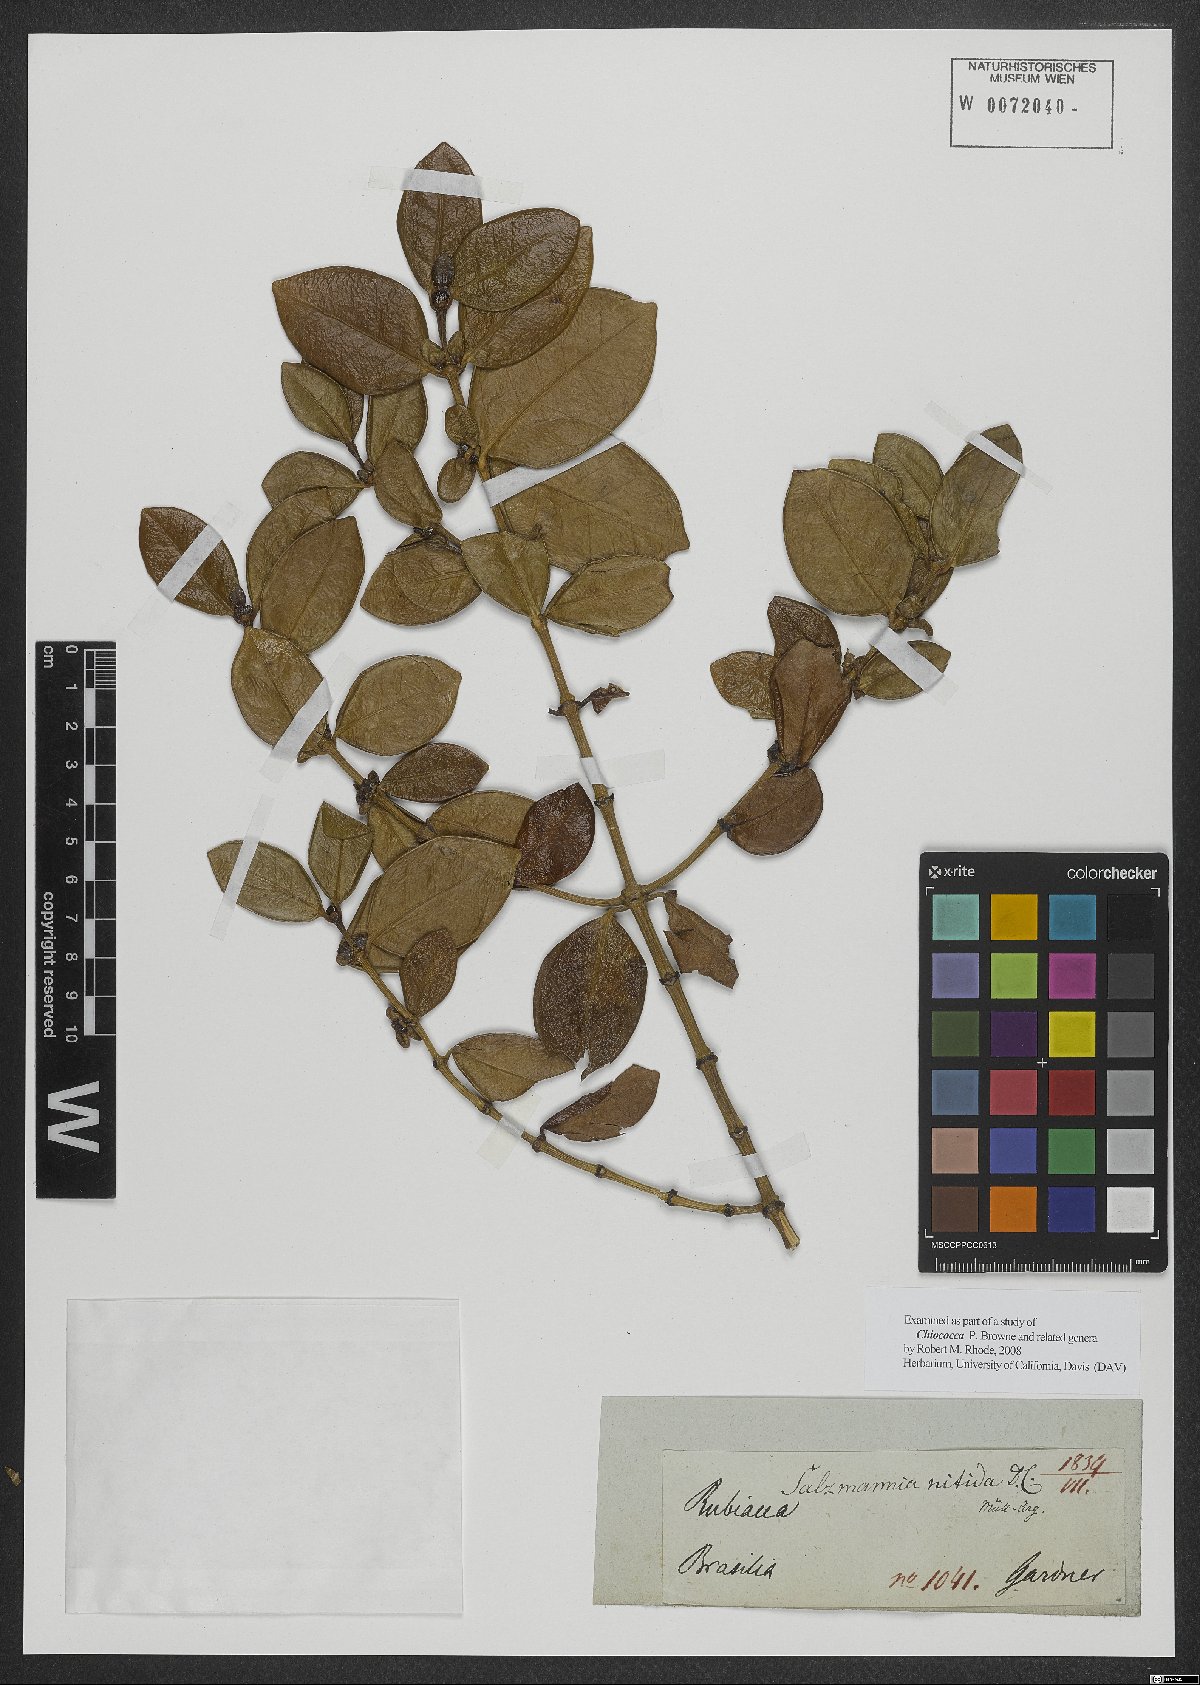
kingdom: Plantae
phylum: Tracheophyta
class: Magnoliopsida
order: Gentianales
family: Rubiaceae
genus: Chiococca
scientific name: Chiococca nitida
